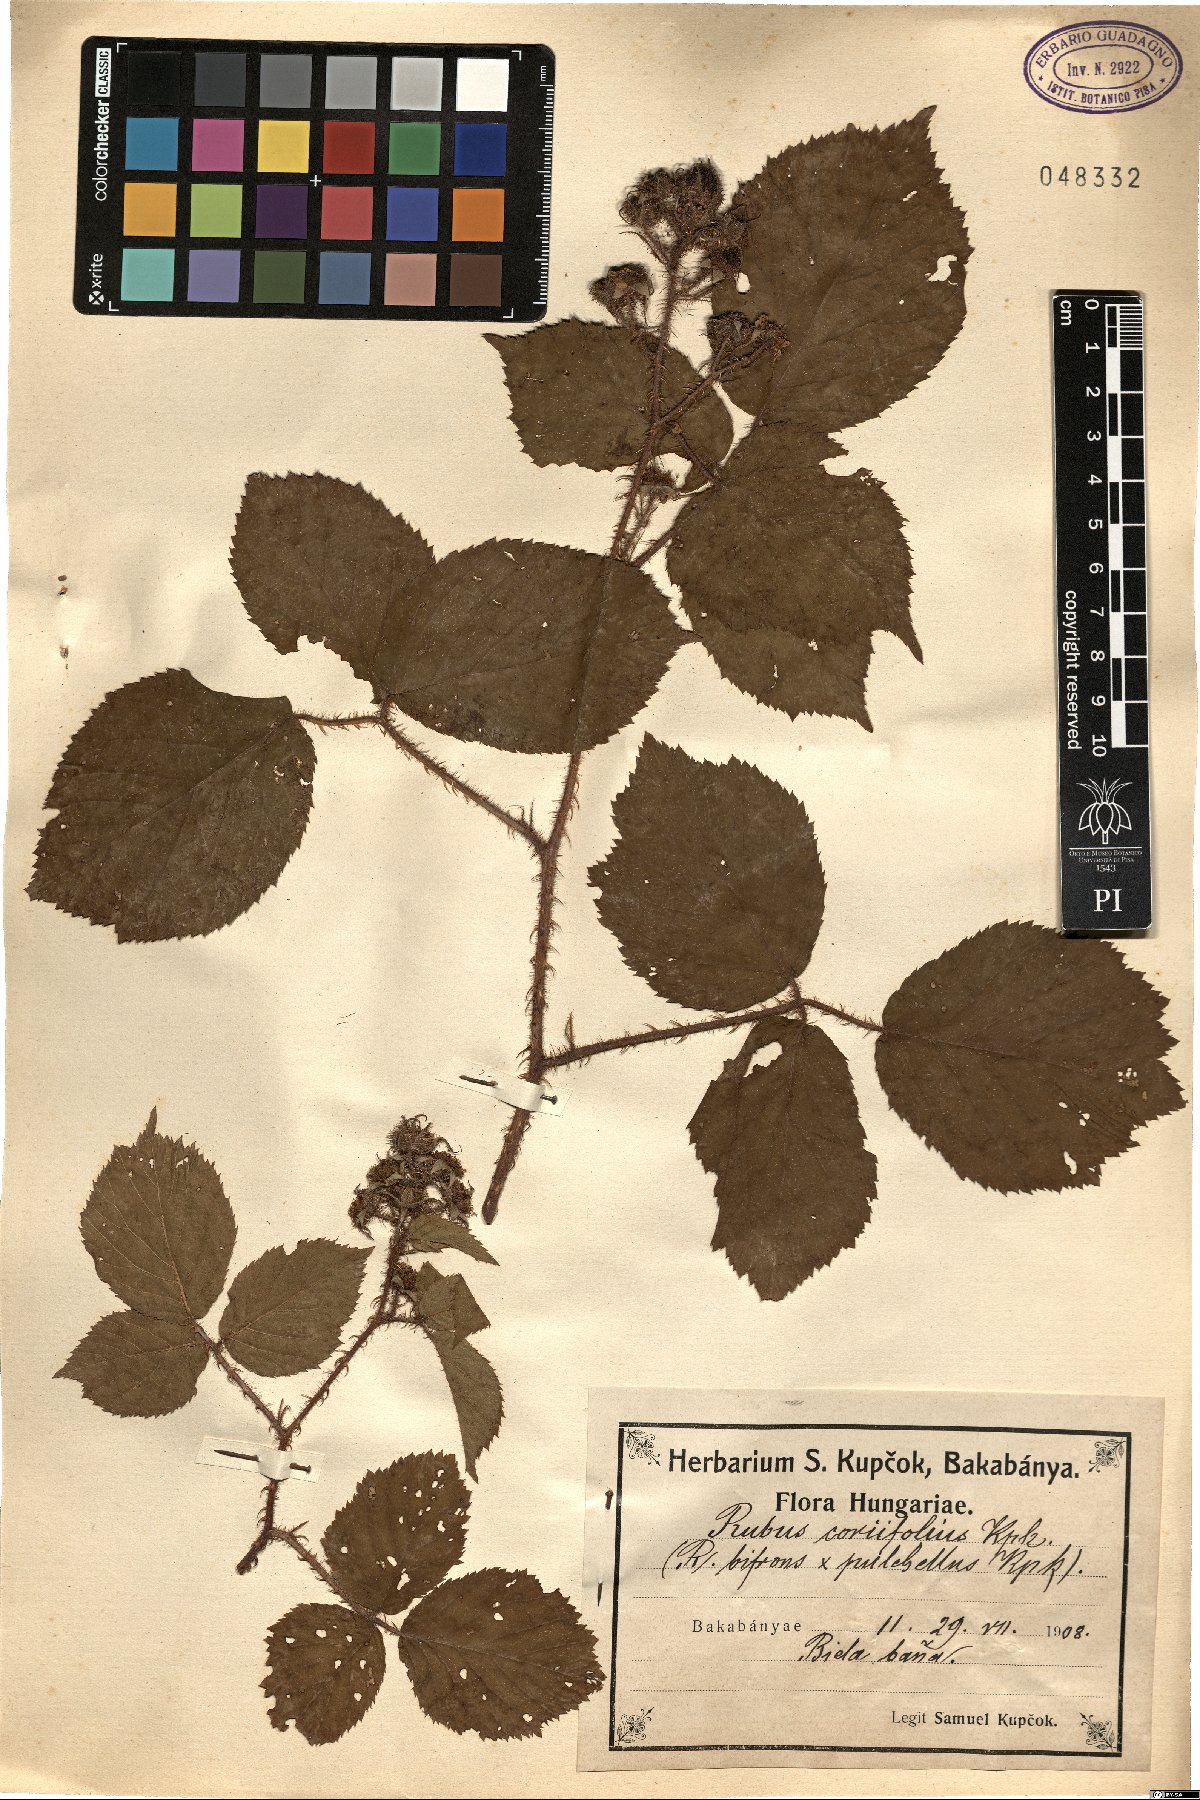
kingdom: Plantae
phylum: Tracheophyta
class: Magnoliopsida
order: Rosales
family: Rosaceae
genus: Rubus
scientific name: Rubus coriifolius
